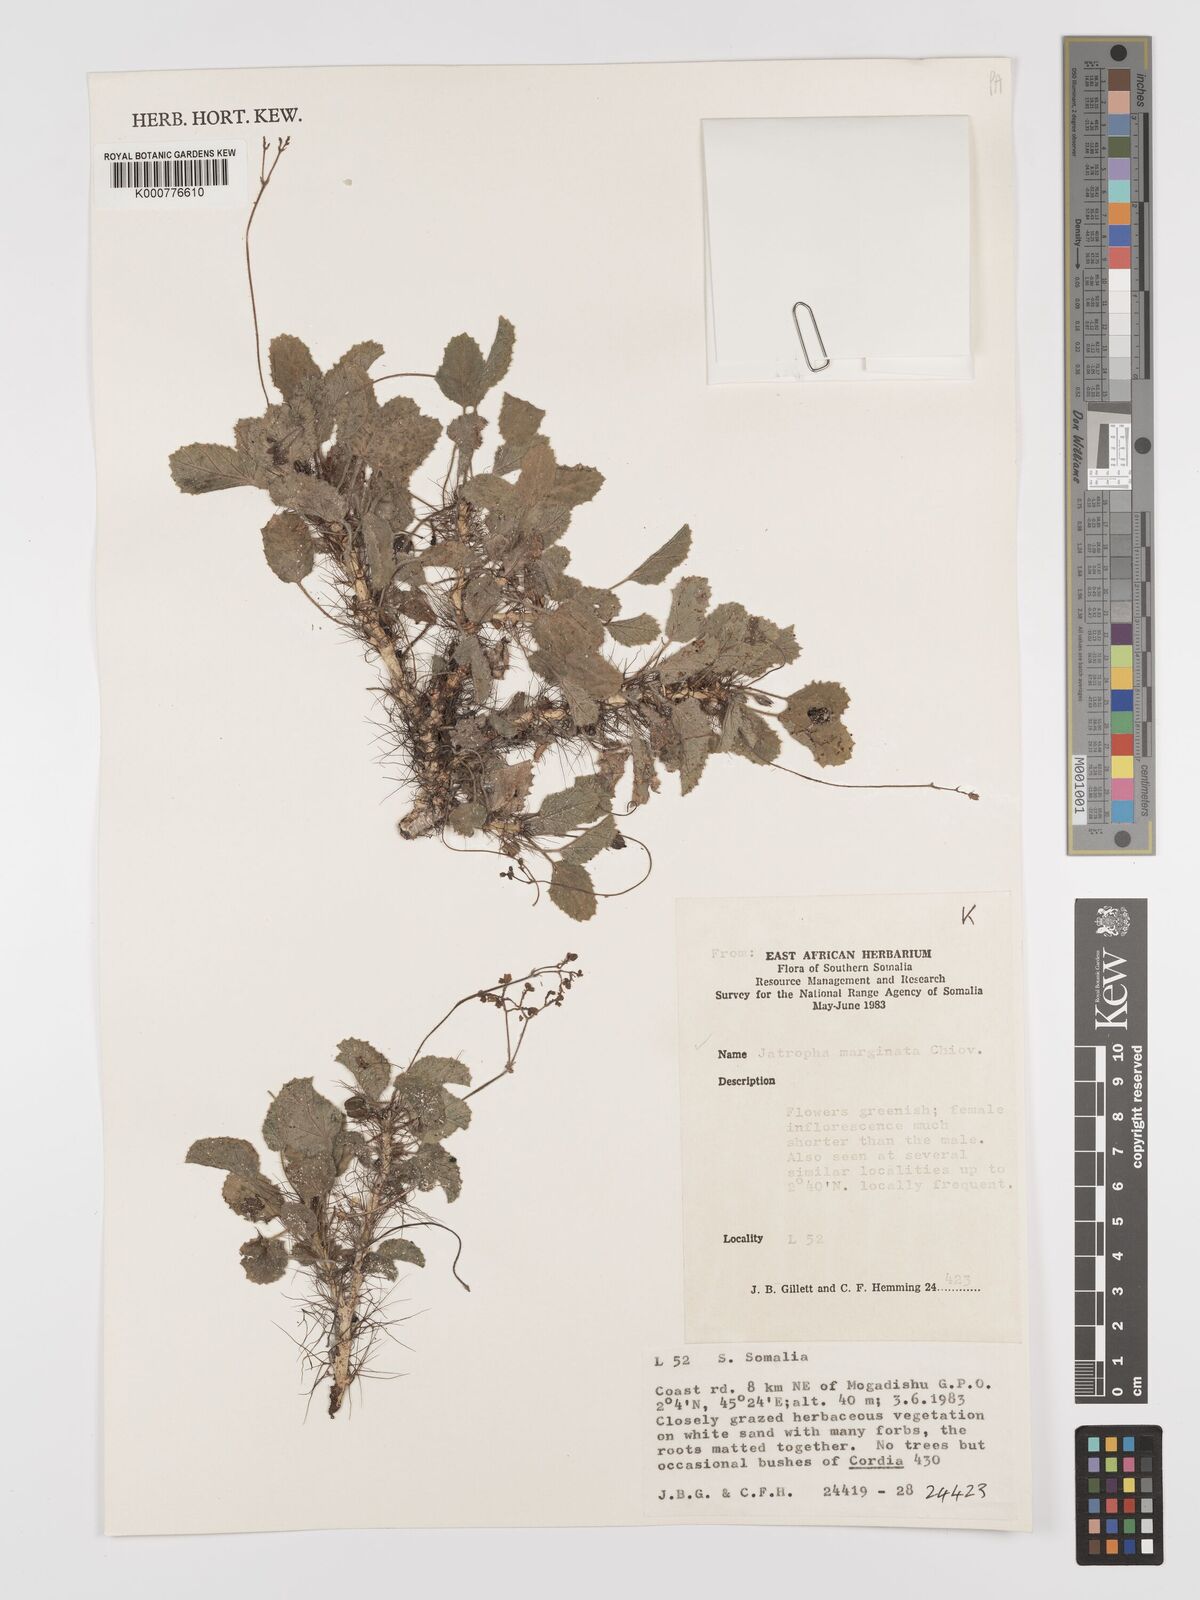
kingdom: Plantae
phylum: Tracheophyta
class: Magnoliopsida
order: Malpighiales
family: Euphorbiaceae
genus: Jatropha
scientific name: Jatropha
